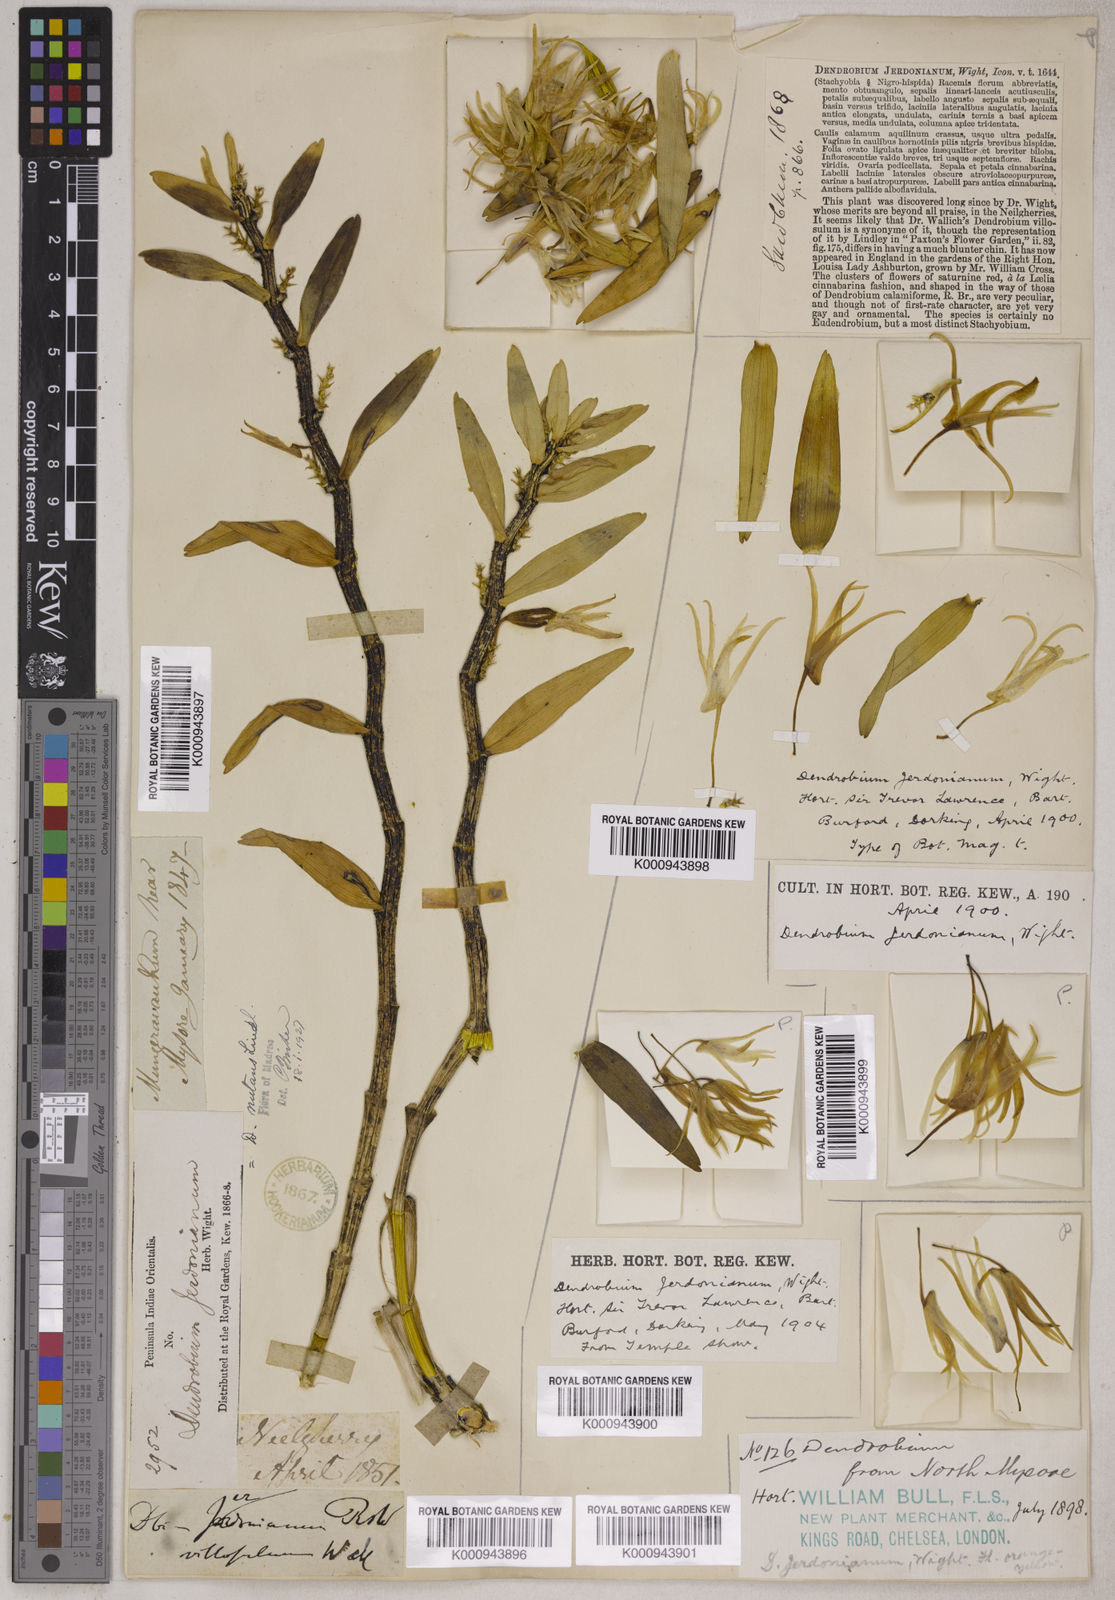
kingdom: Plantae
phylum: Tracheophyta
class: Liliopsida
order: Asparagales
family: Orchidaceae
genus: Dendrobium
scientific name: Dendrobium jerdonianum
